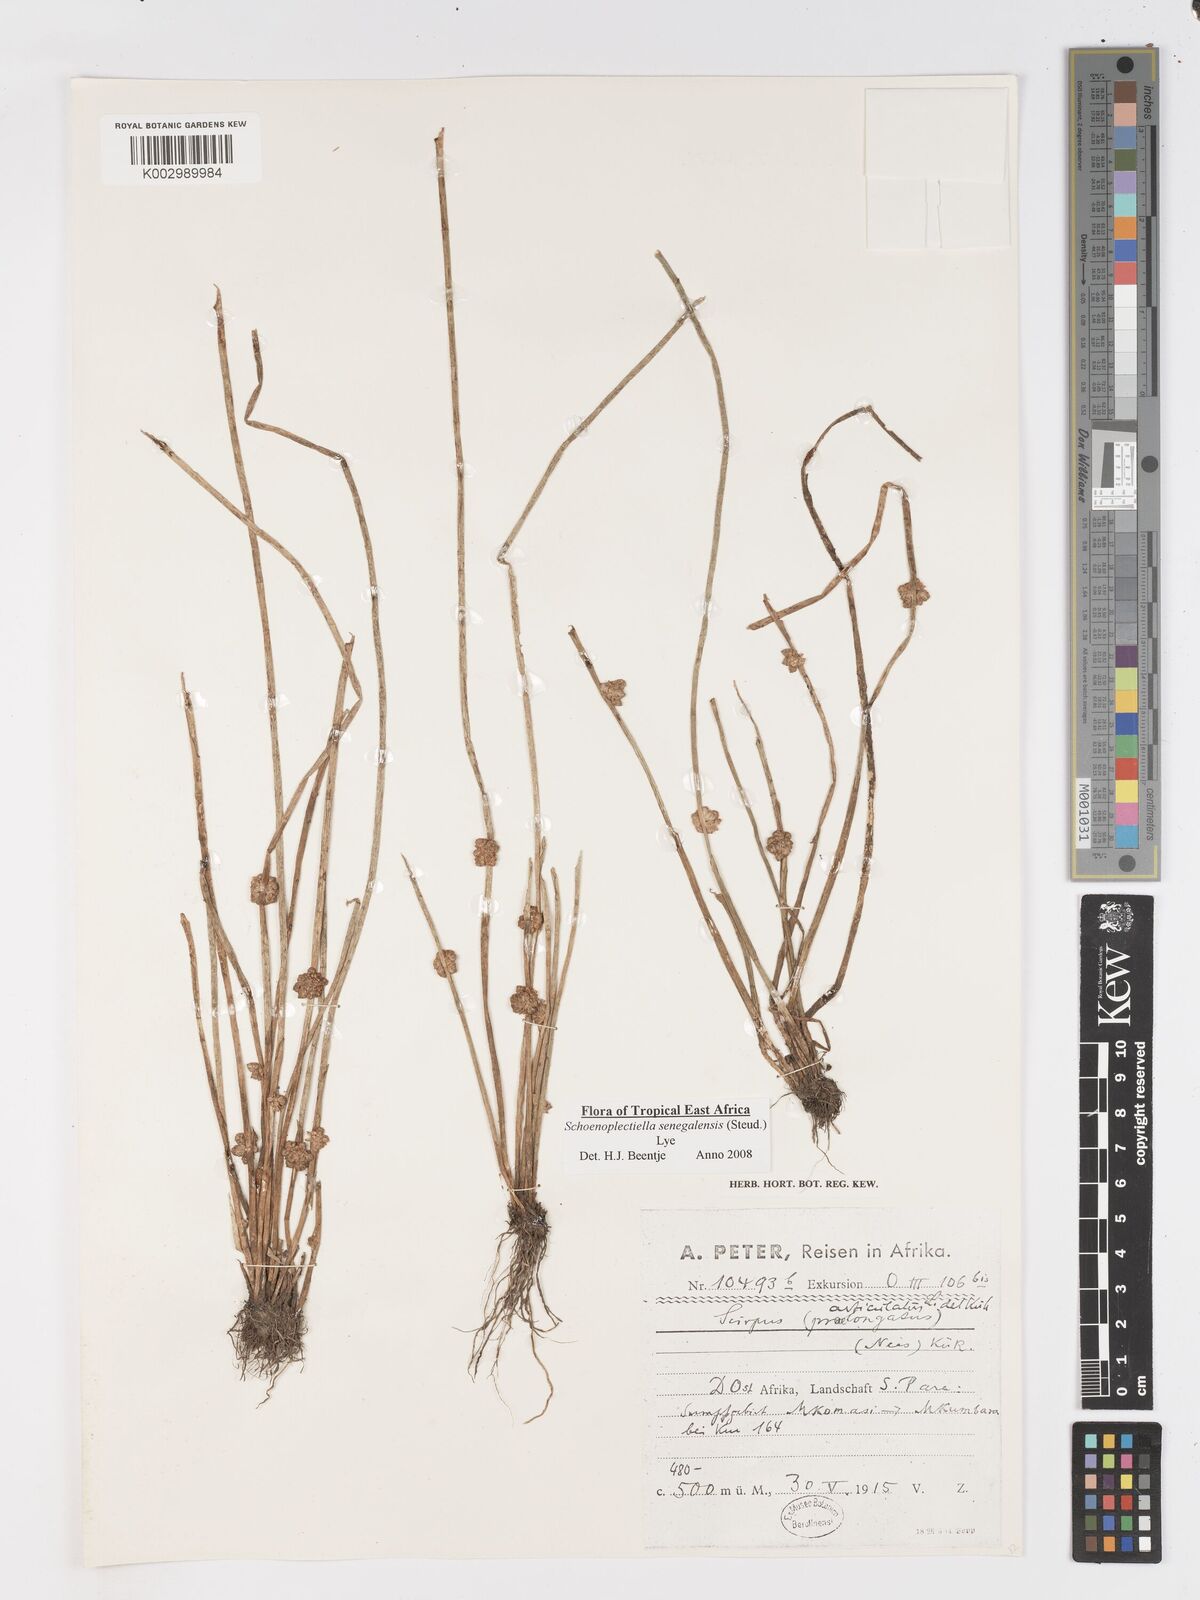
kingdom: Plantae
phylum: Tracheophyta
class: Liliopsida
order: Poales
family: Cyperaceae
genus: Schoenoplectiella
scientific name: Schoenoplectiella senegalensis
